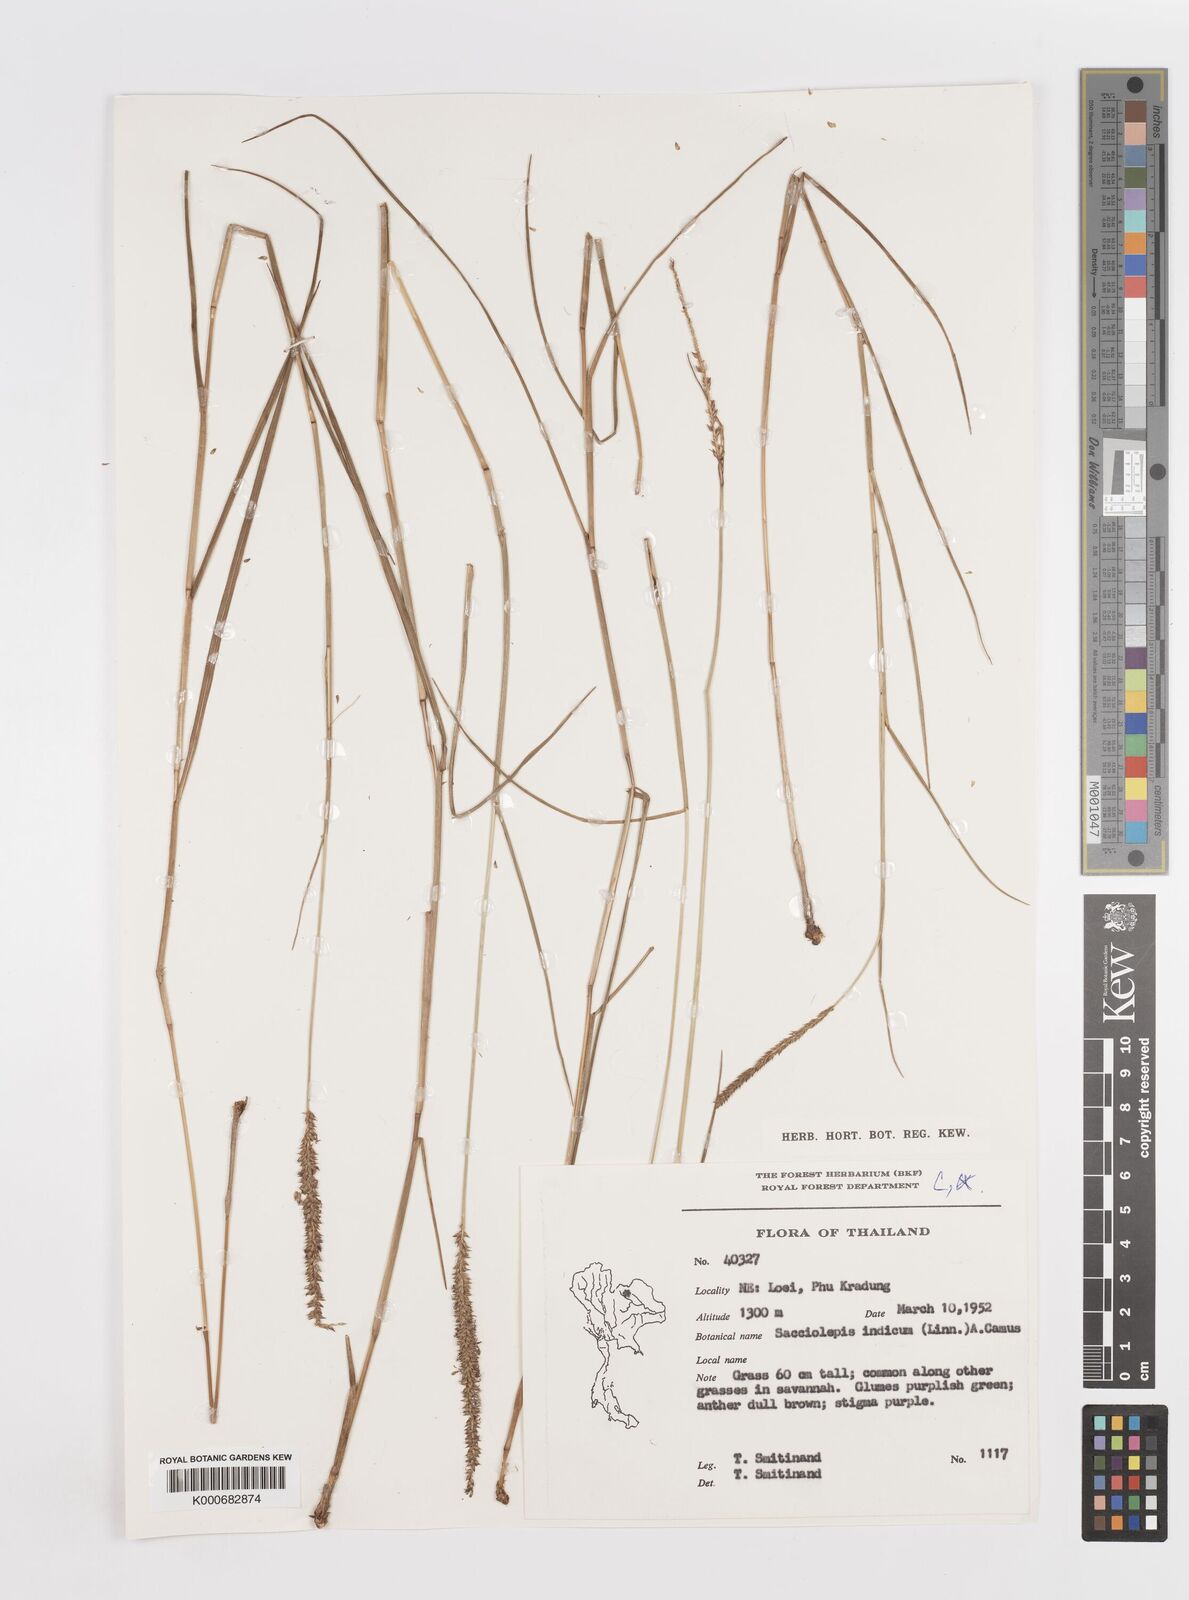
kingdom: Plantae
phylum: Tracheophyta
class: Liliopsida
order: Poales
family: Poaceae
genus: Sacciolepis
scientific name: Sacciolepis indica
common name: Glenwoodgrass
